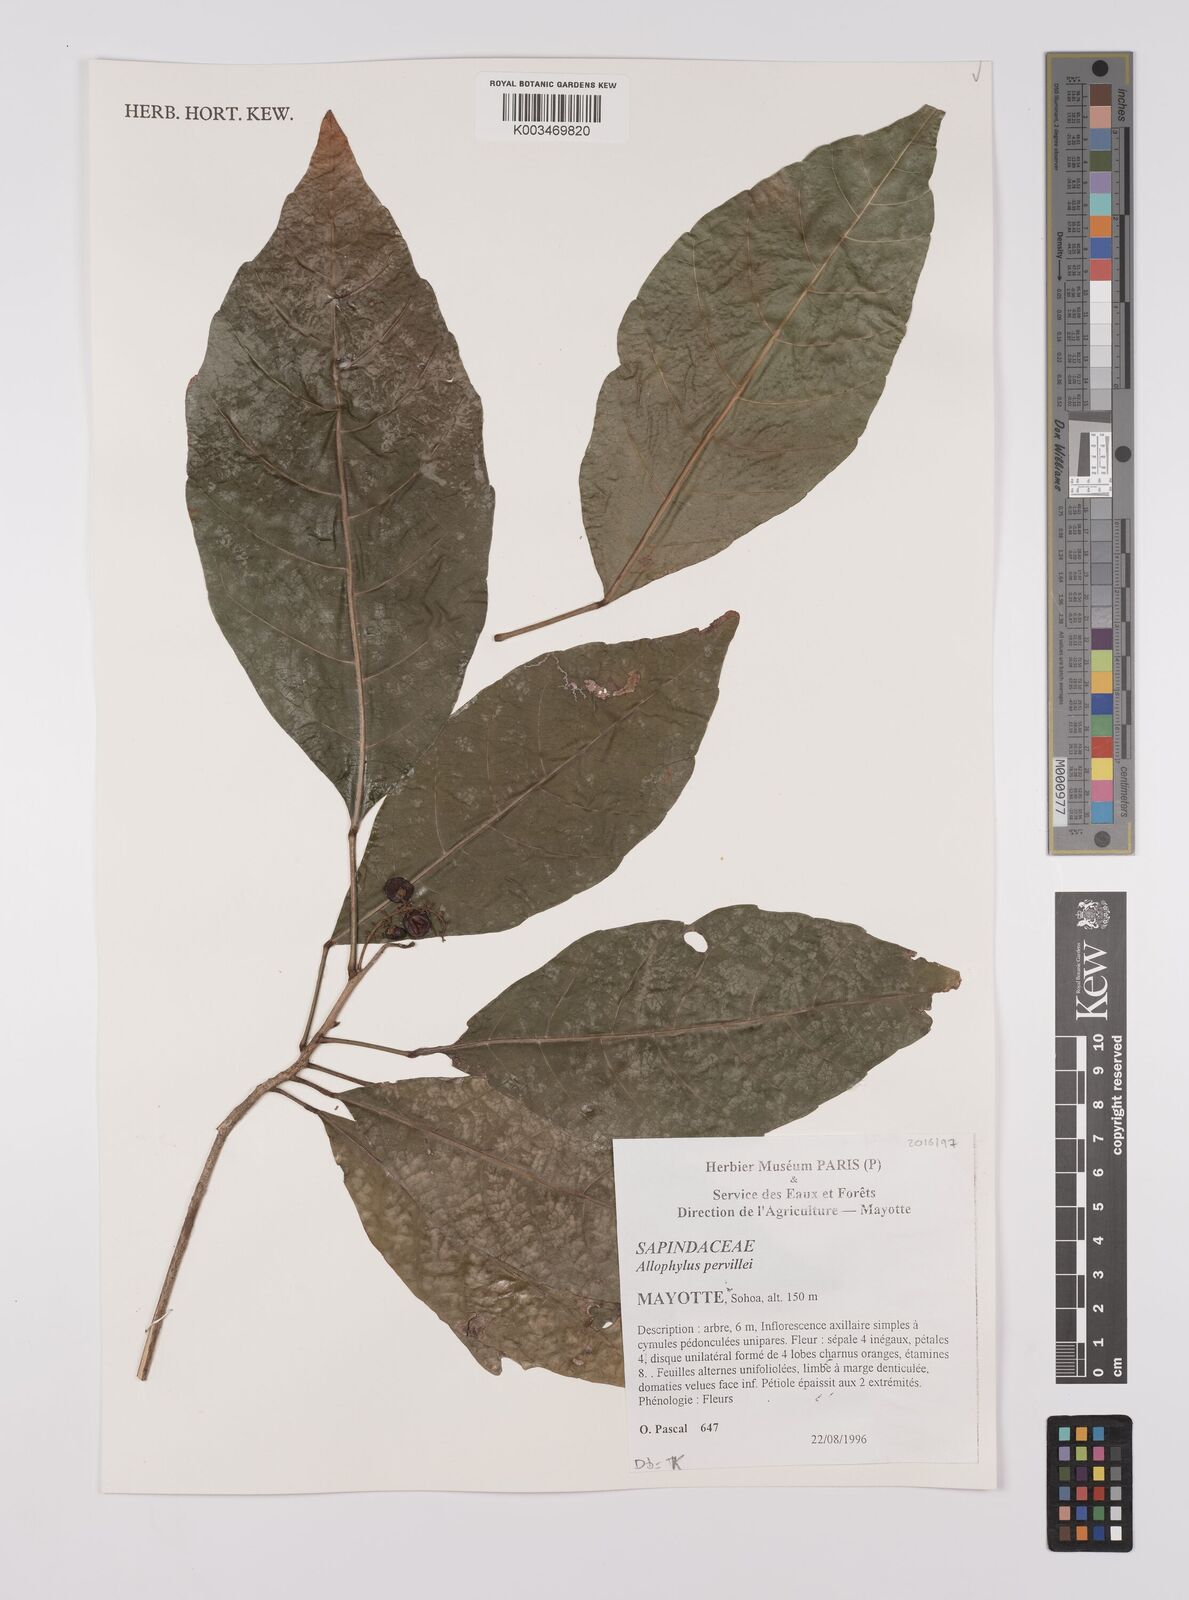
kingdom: Plantae
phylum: Tracheophyta
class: Magnoliopsida
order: Sapindales
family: Sapindaceae
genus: Allophylus
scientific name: Allophylus pervillei
